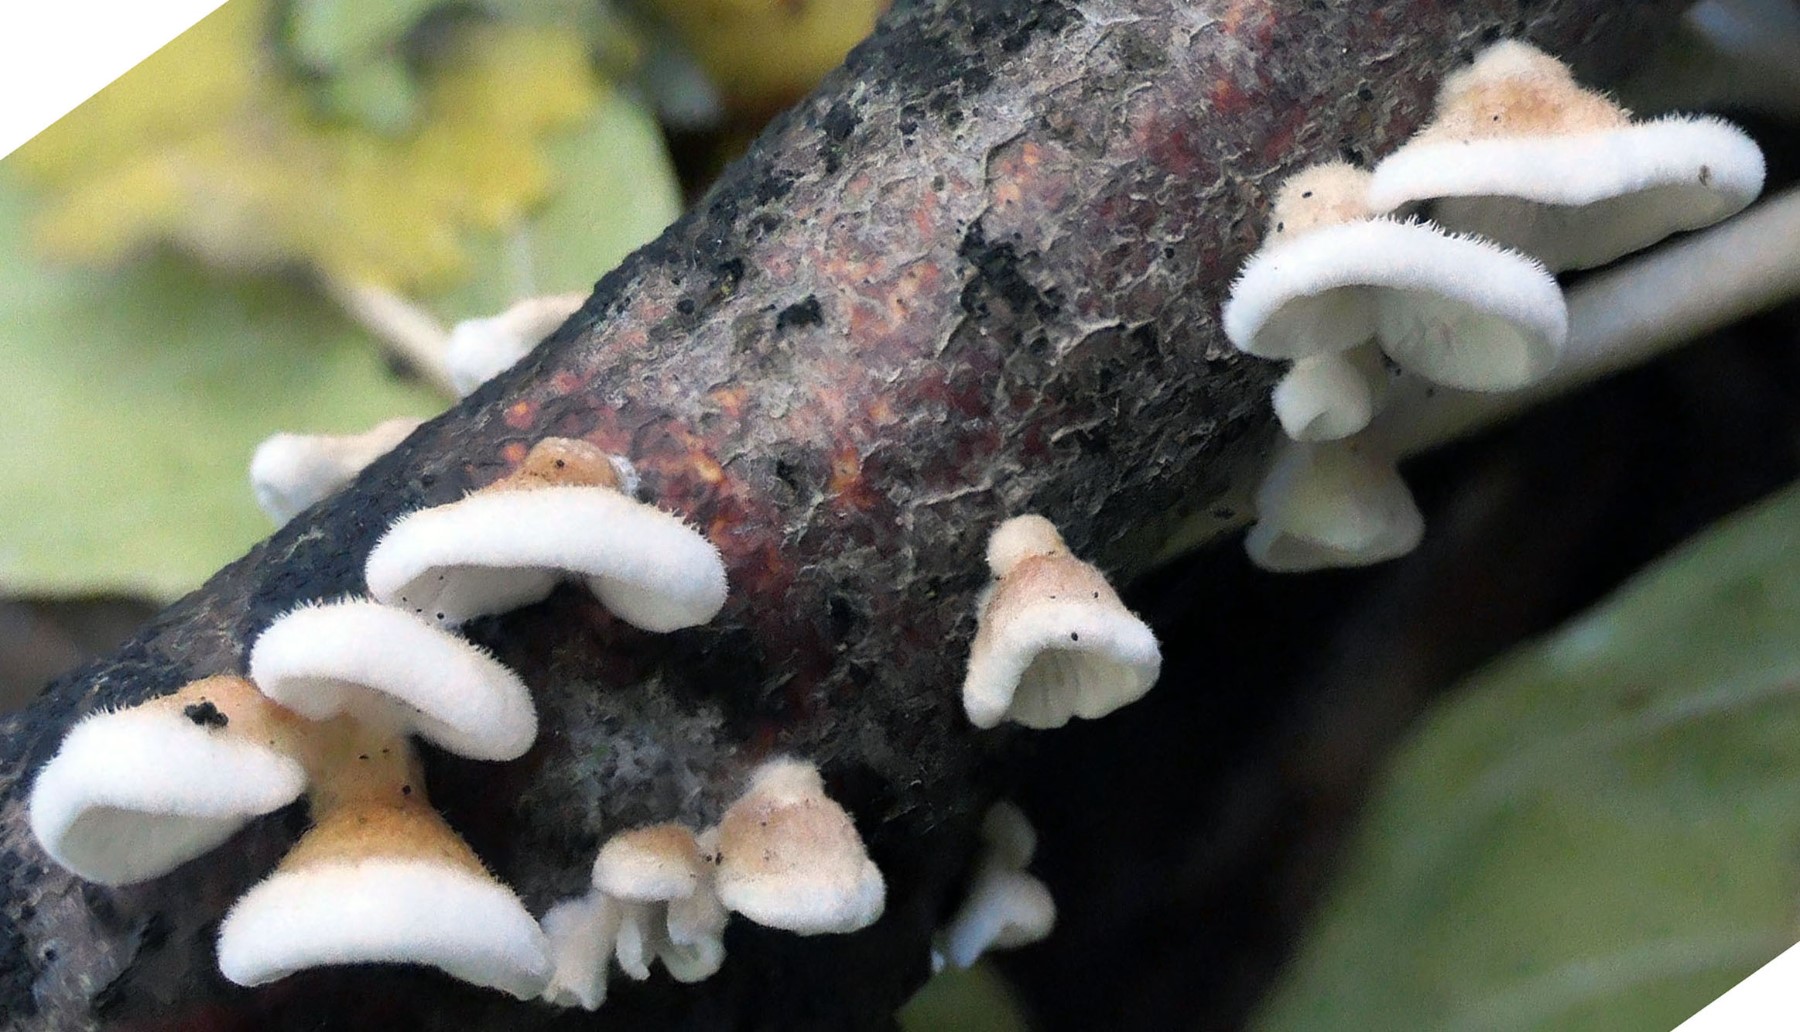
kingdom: Fungi
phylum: Basidiomycota
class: Agaricomycetes
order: Amylocorticiales
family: Amylocorticiaceae
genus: Plicaturopsis
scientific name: Plicaturopsis crispa
